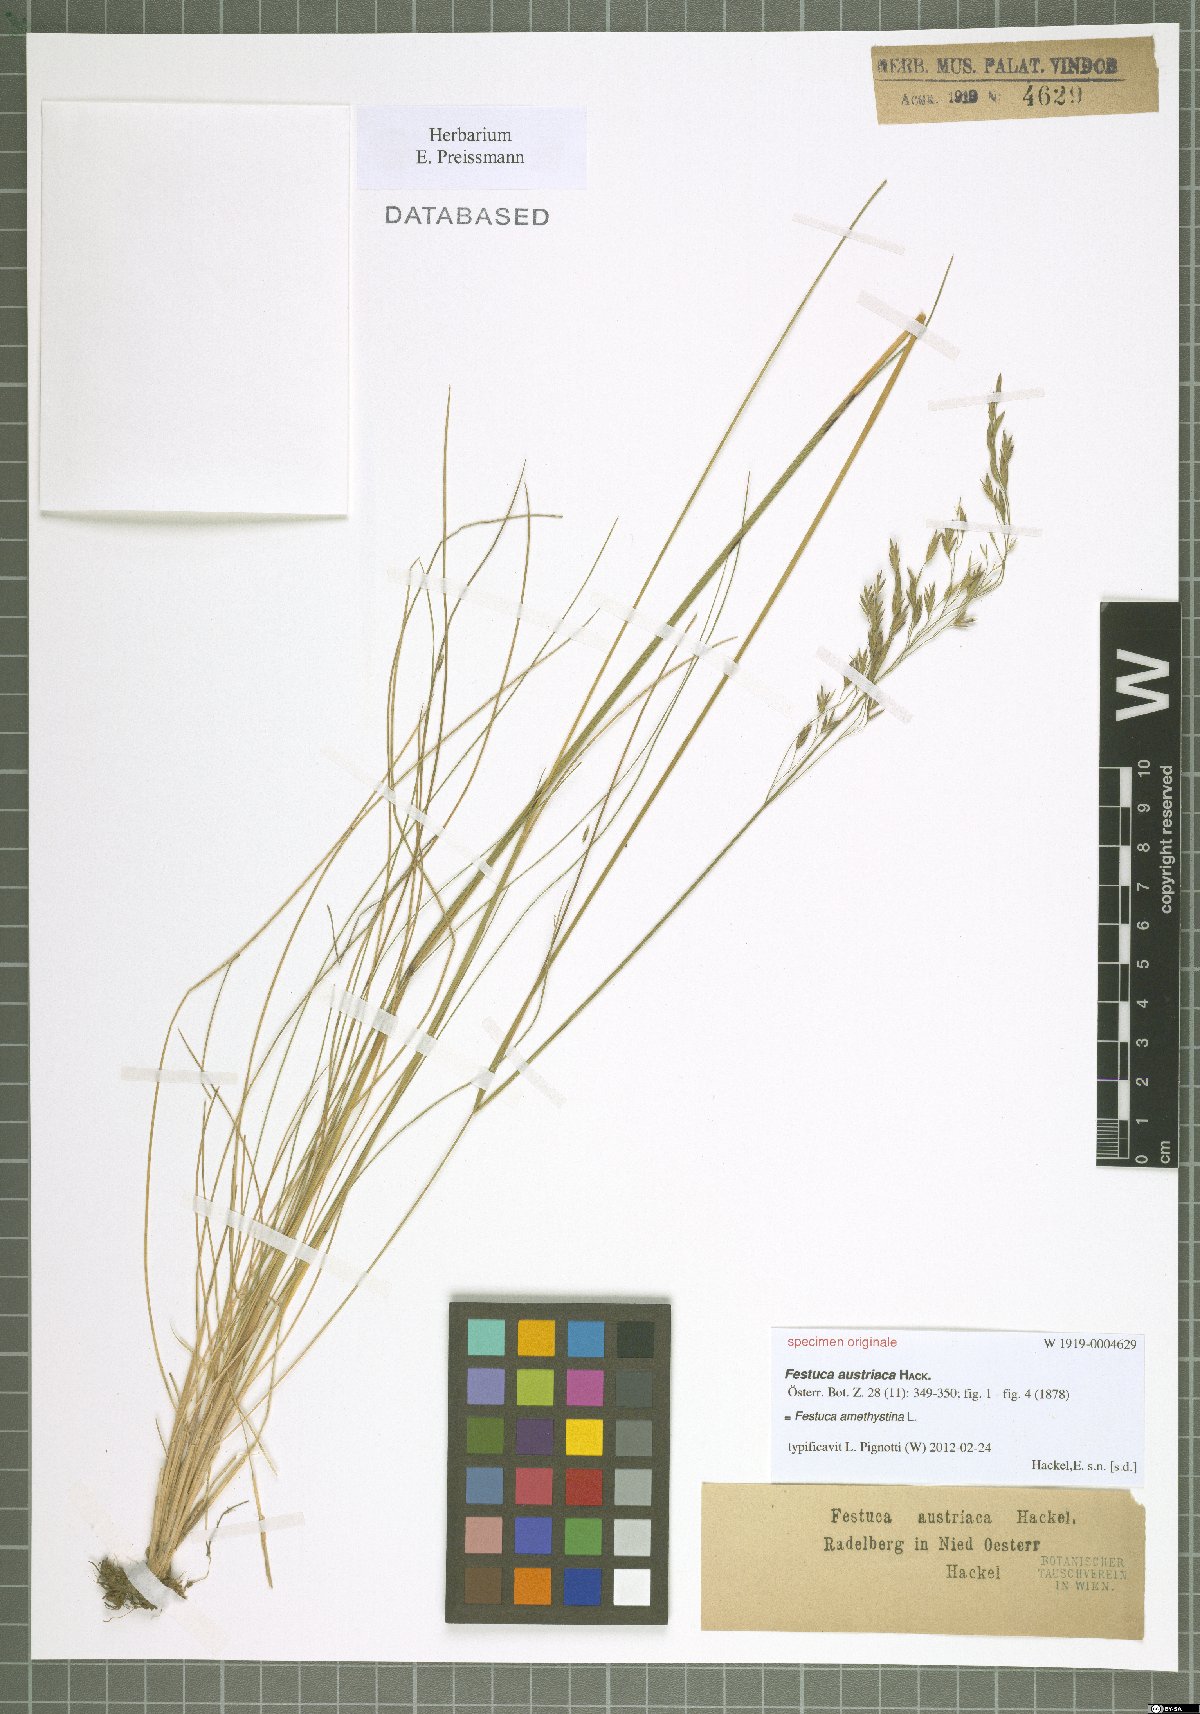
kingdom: Plantae
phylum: Tracheophyta
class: Liliopsida
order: Poales
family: Poaceae
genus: Festuca
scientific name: Festuca amethystina
